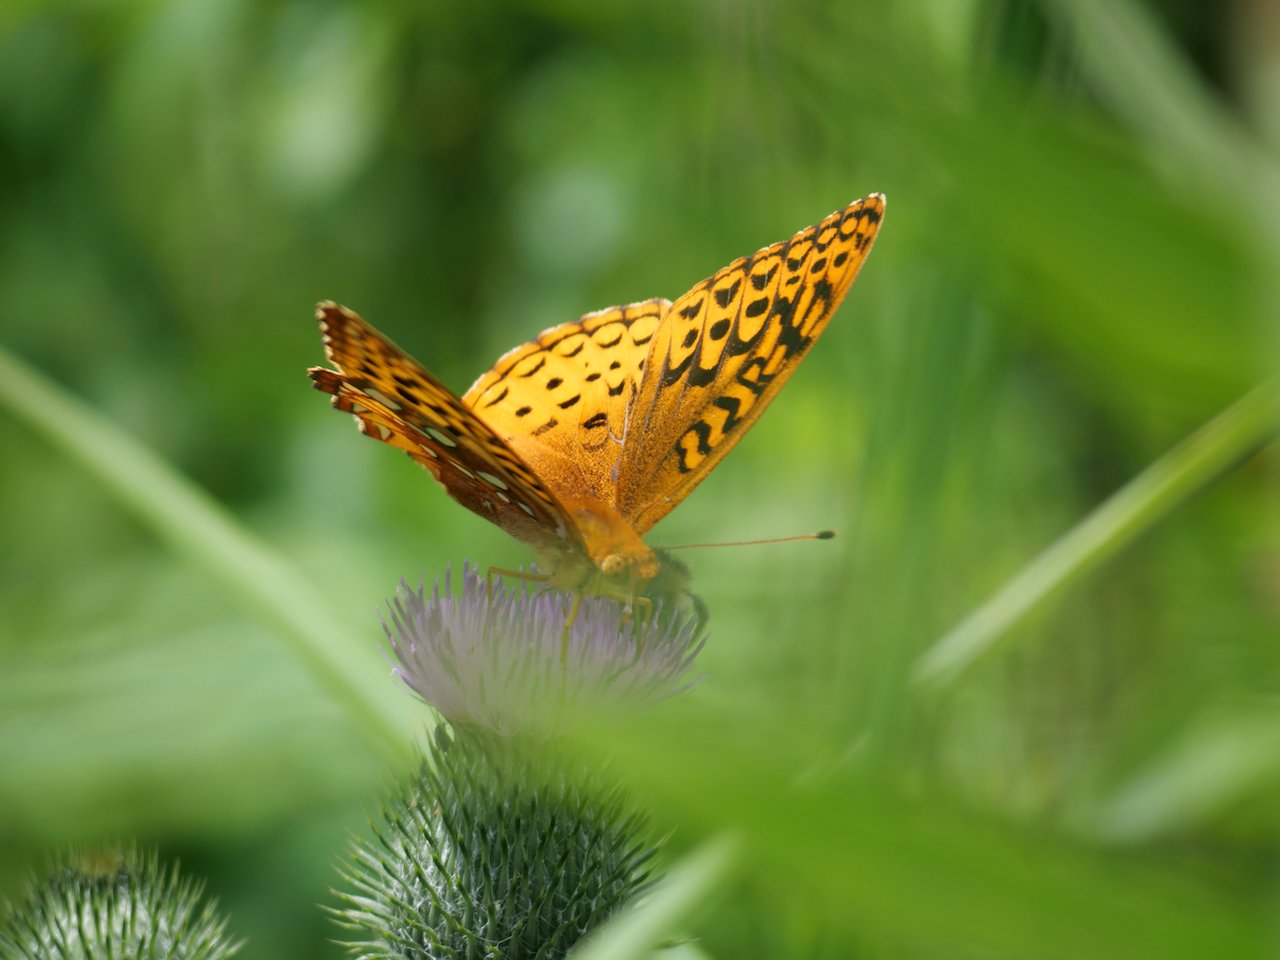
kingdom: Animalia
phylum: Arthropoda
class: Insecta
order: Lepidoptera
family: Nymphalidae
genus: Speyeria
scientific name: Speyeria cybele
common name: Great Spangled Fritillary
